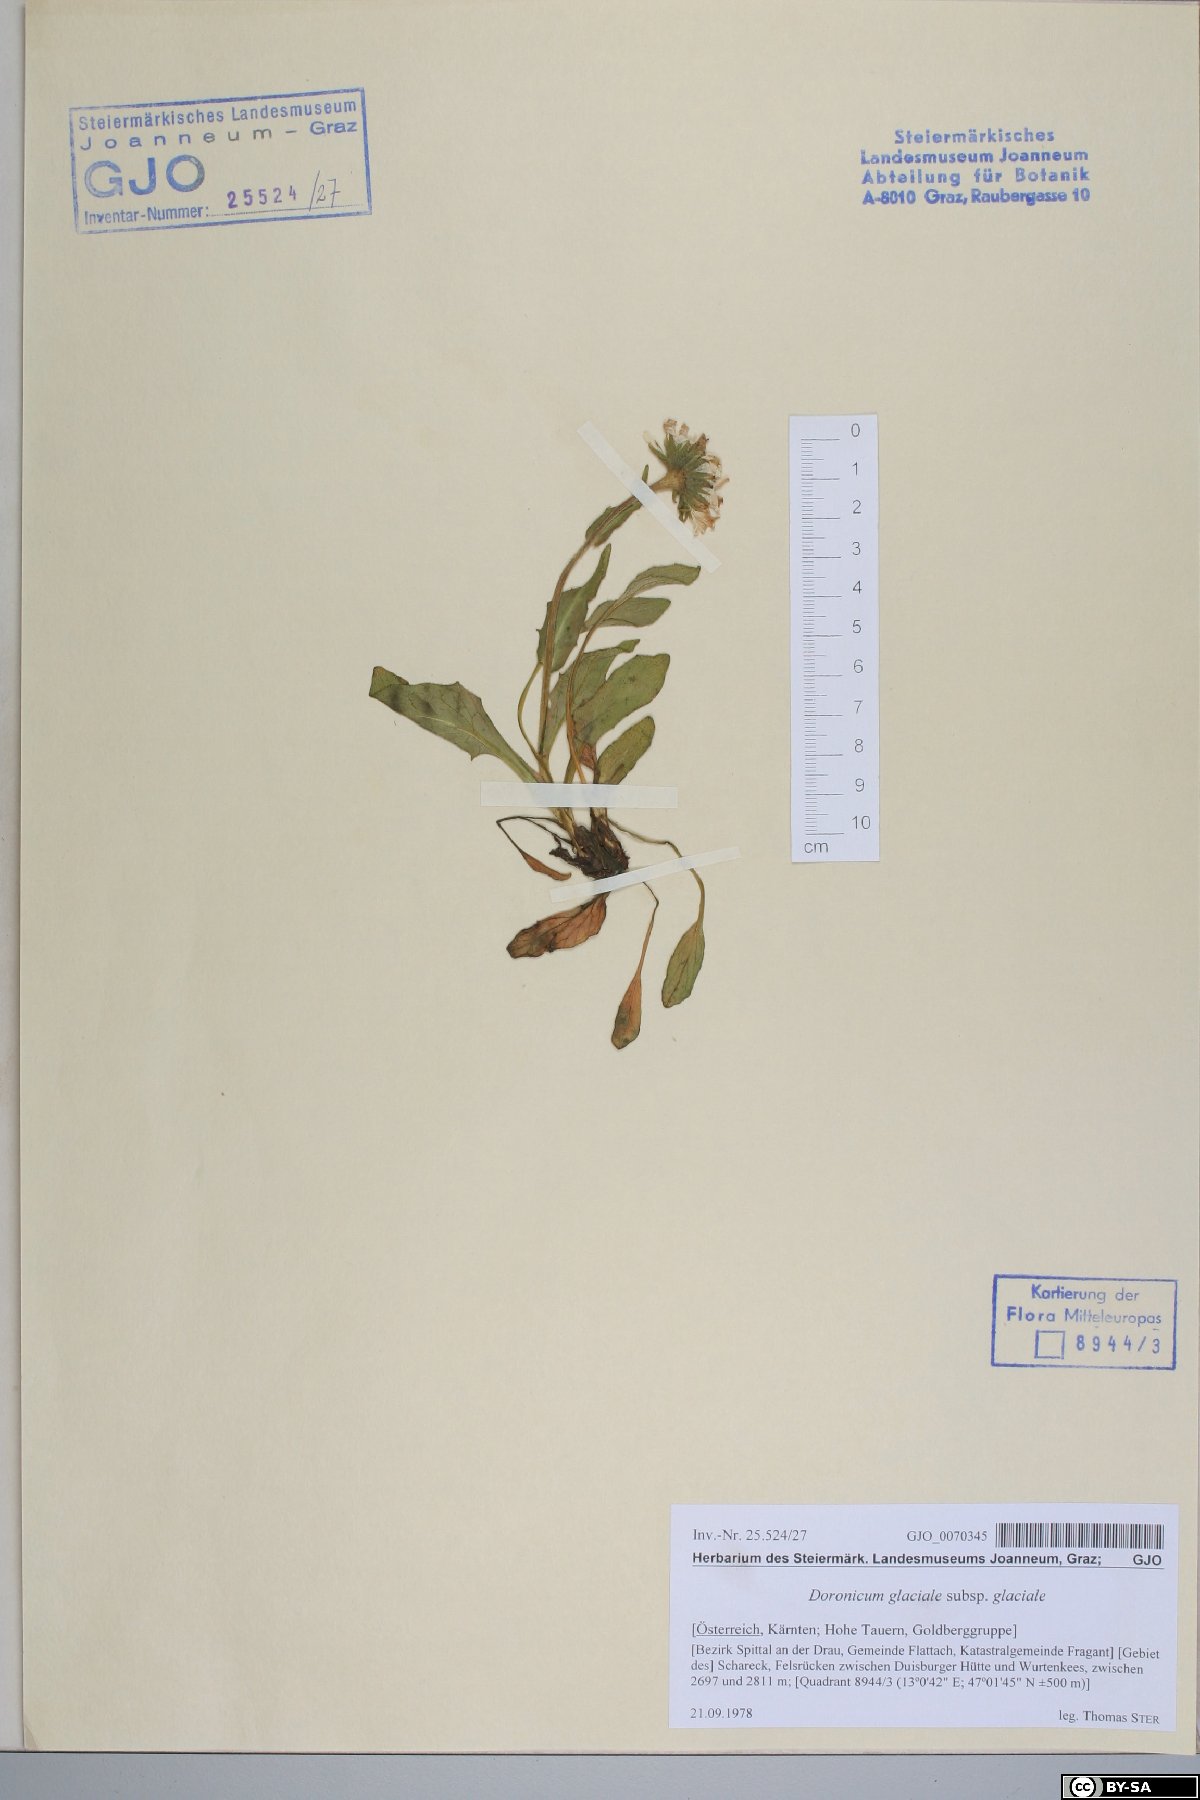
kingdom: Plantae
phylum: Tracheophyta
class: Magnoliopsida
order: Asterales
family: Asteraceae
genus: Doronicum
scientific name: Doronicum glaciale
